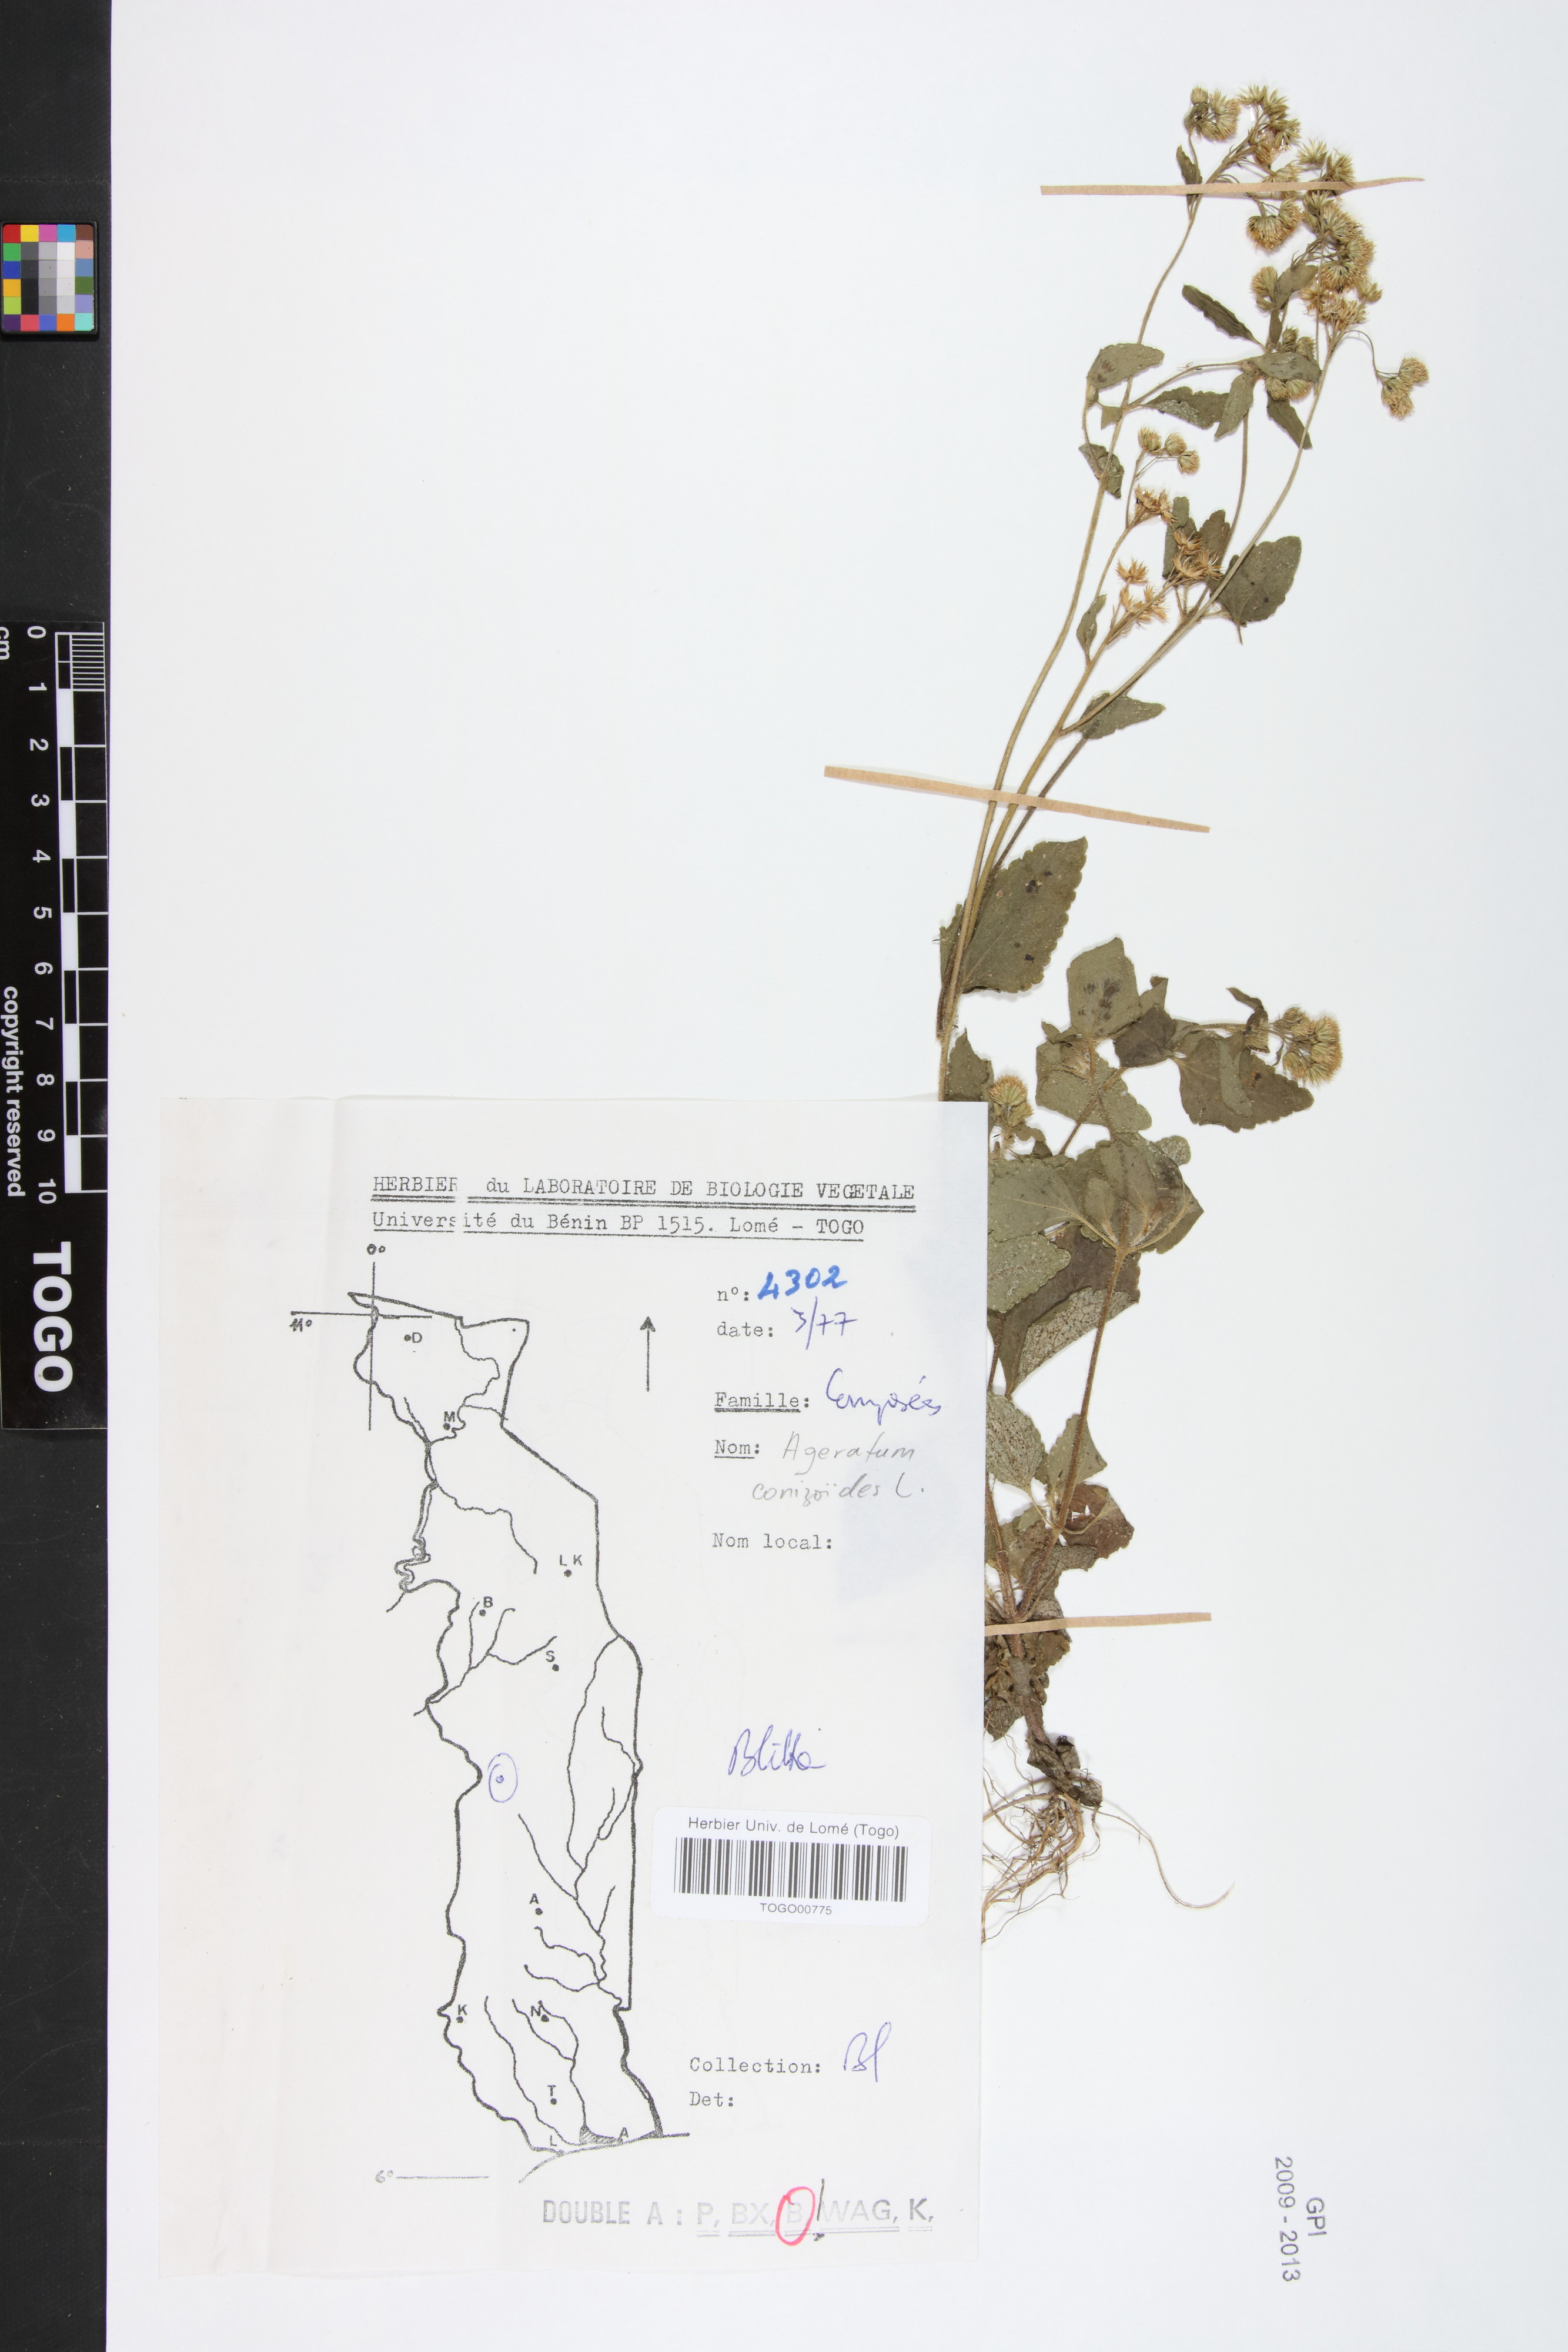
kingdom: Plantae
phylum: Tracheophyta
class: Magnoliopsida
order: Asterales
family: Asteraceae
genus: Ageratum
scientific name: Ageratum conyzoides
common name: Tropical whiteweed
